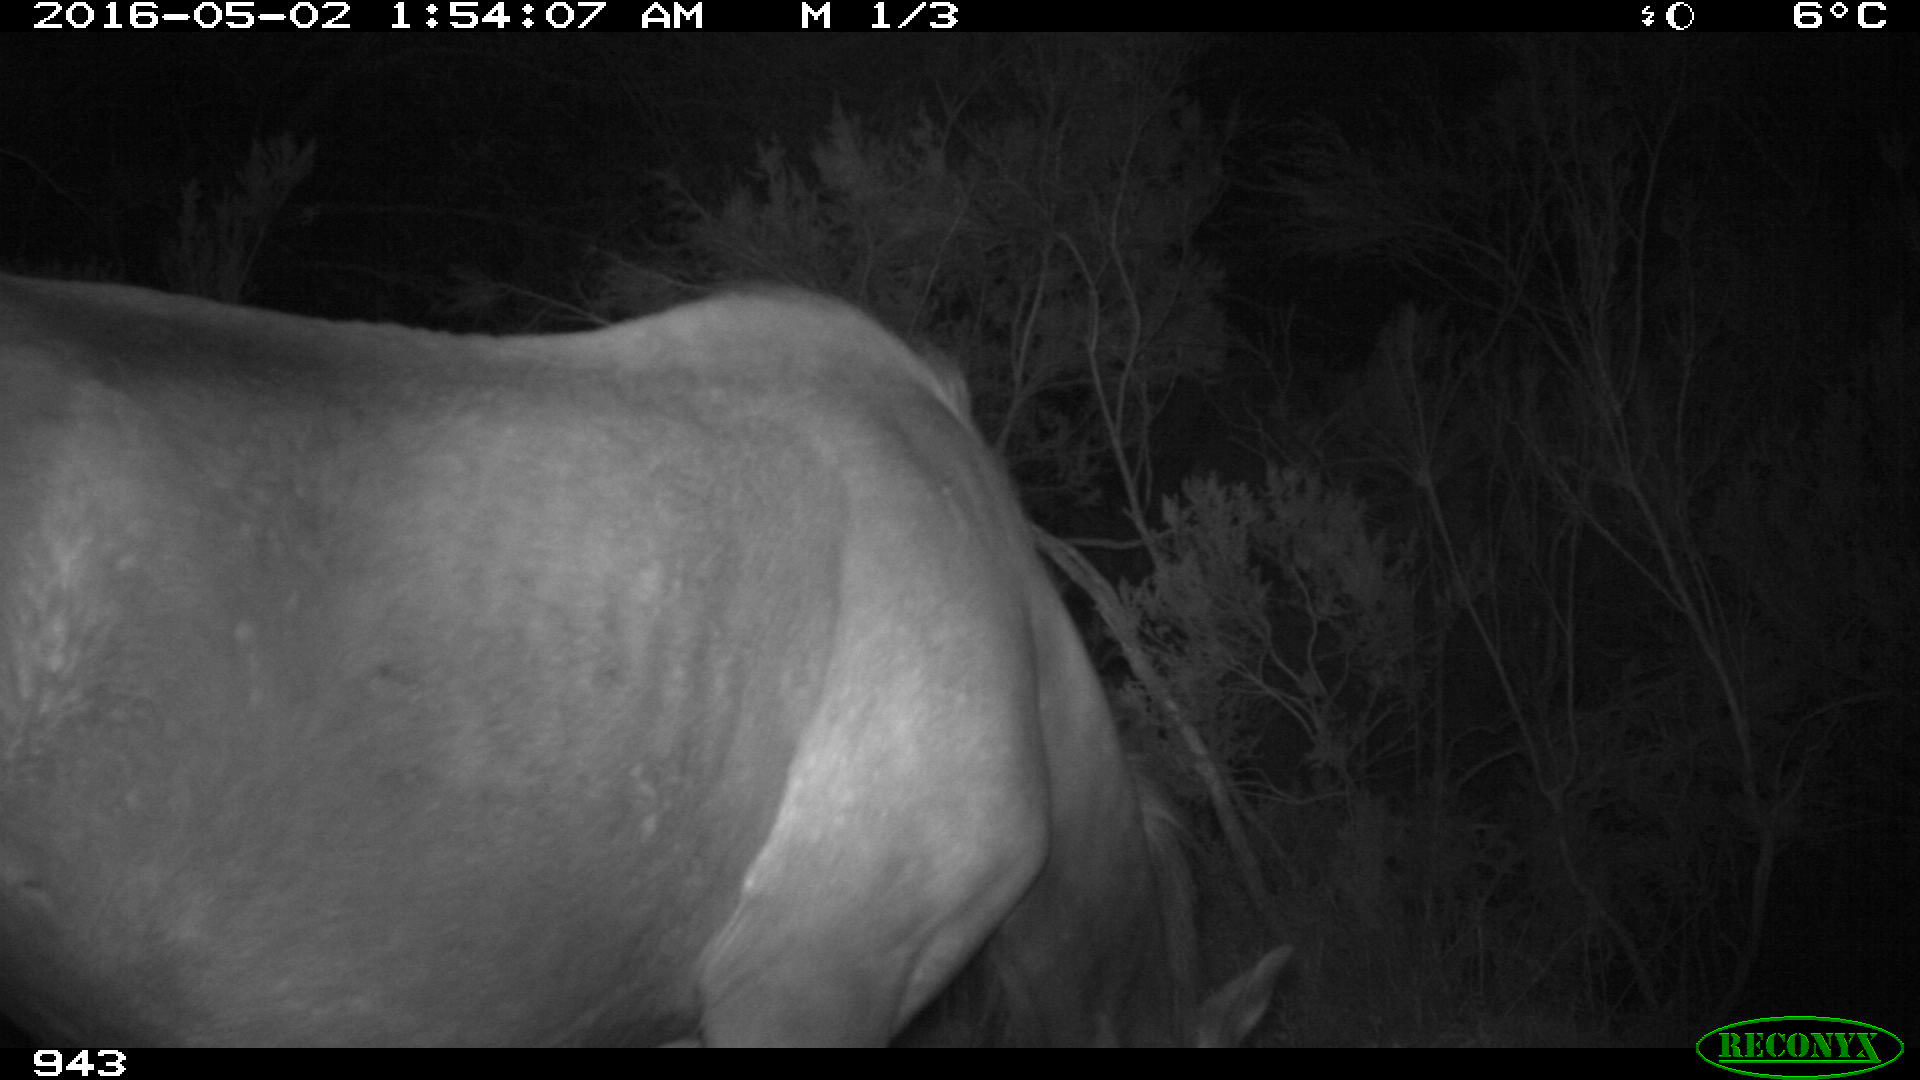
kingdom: Animalia
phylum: Chordata
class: Mammalia
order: Perissodactyla
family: Equidae
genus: Equus
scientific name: Equus caballus
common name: Horse
